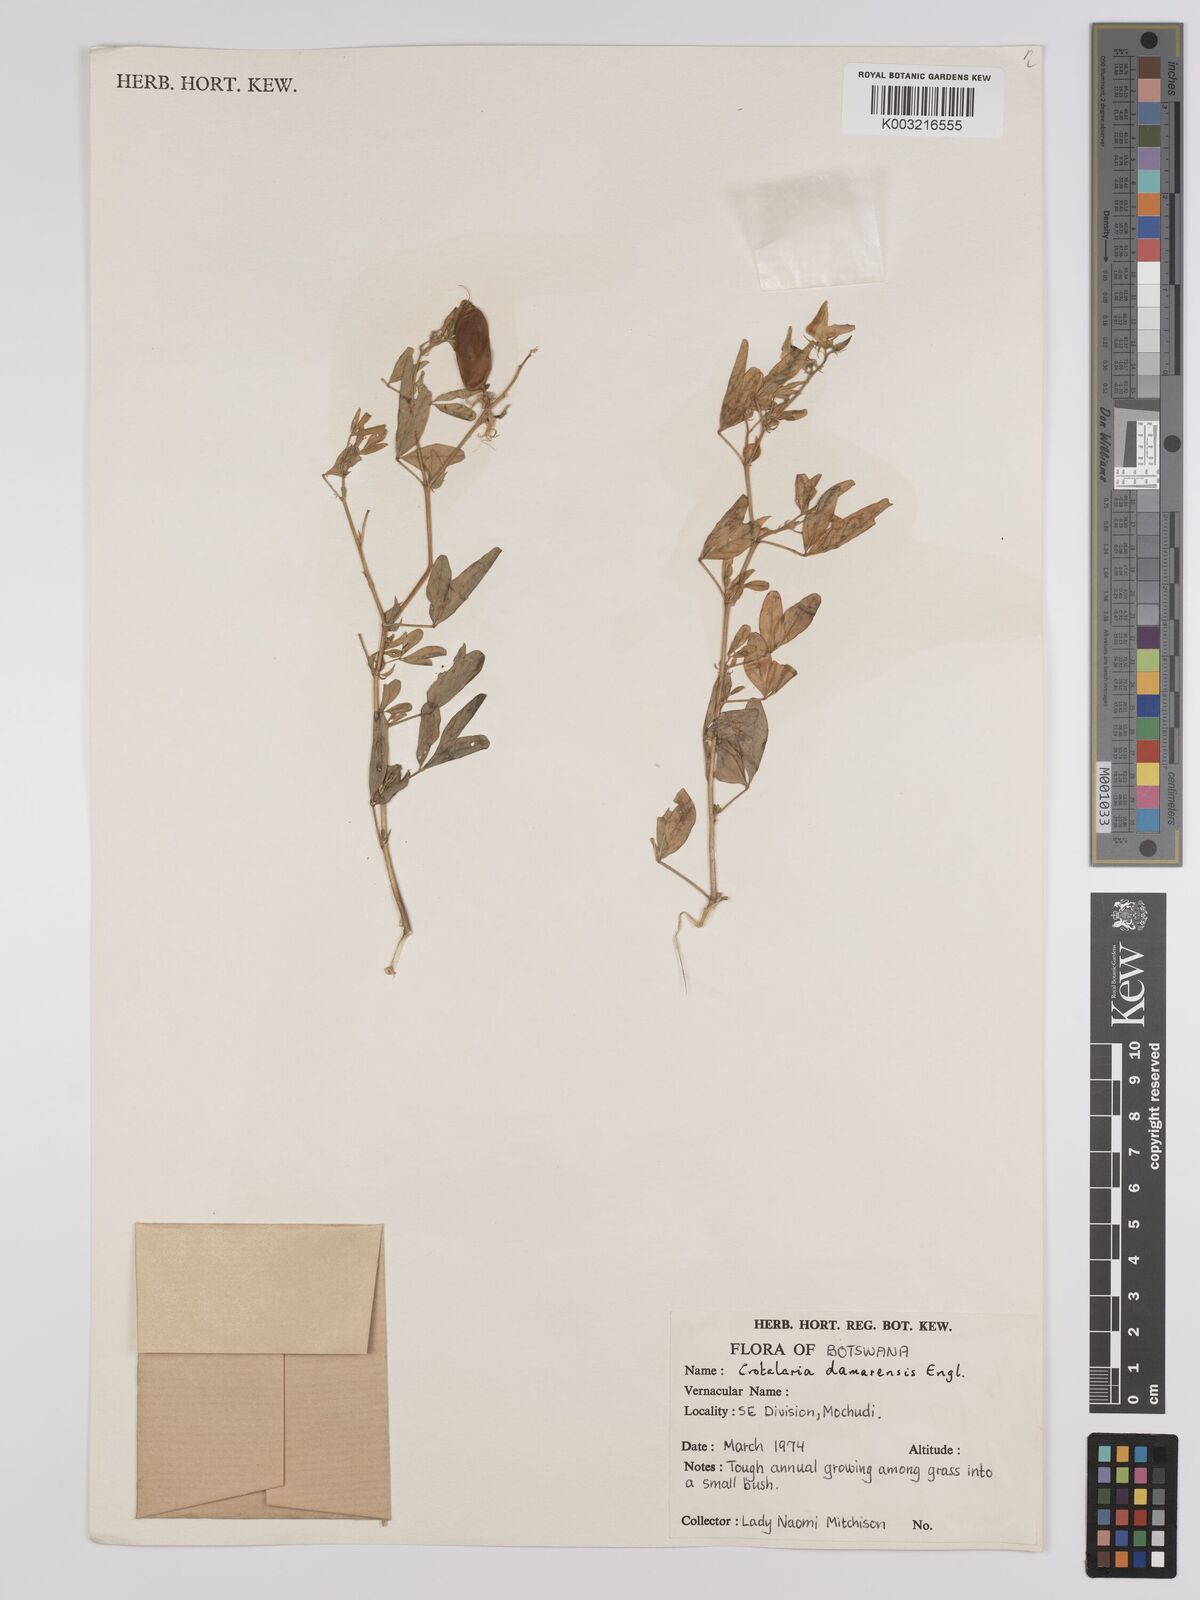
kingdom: Plantae
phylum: Tracheophyta
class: Magnoliopsida
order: Fabales
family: Fabaceae
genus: Crotalaria
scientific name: Crotalaria damarensis
